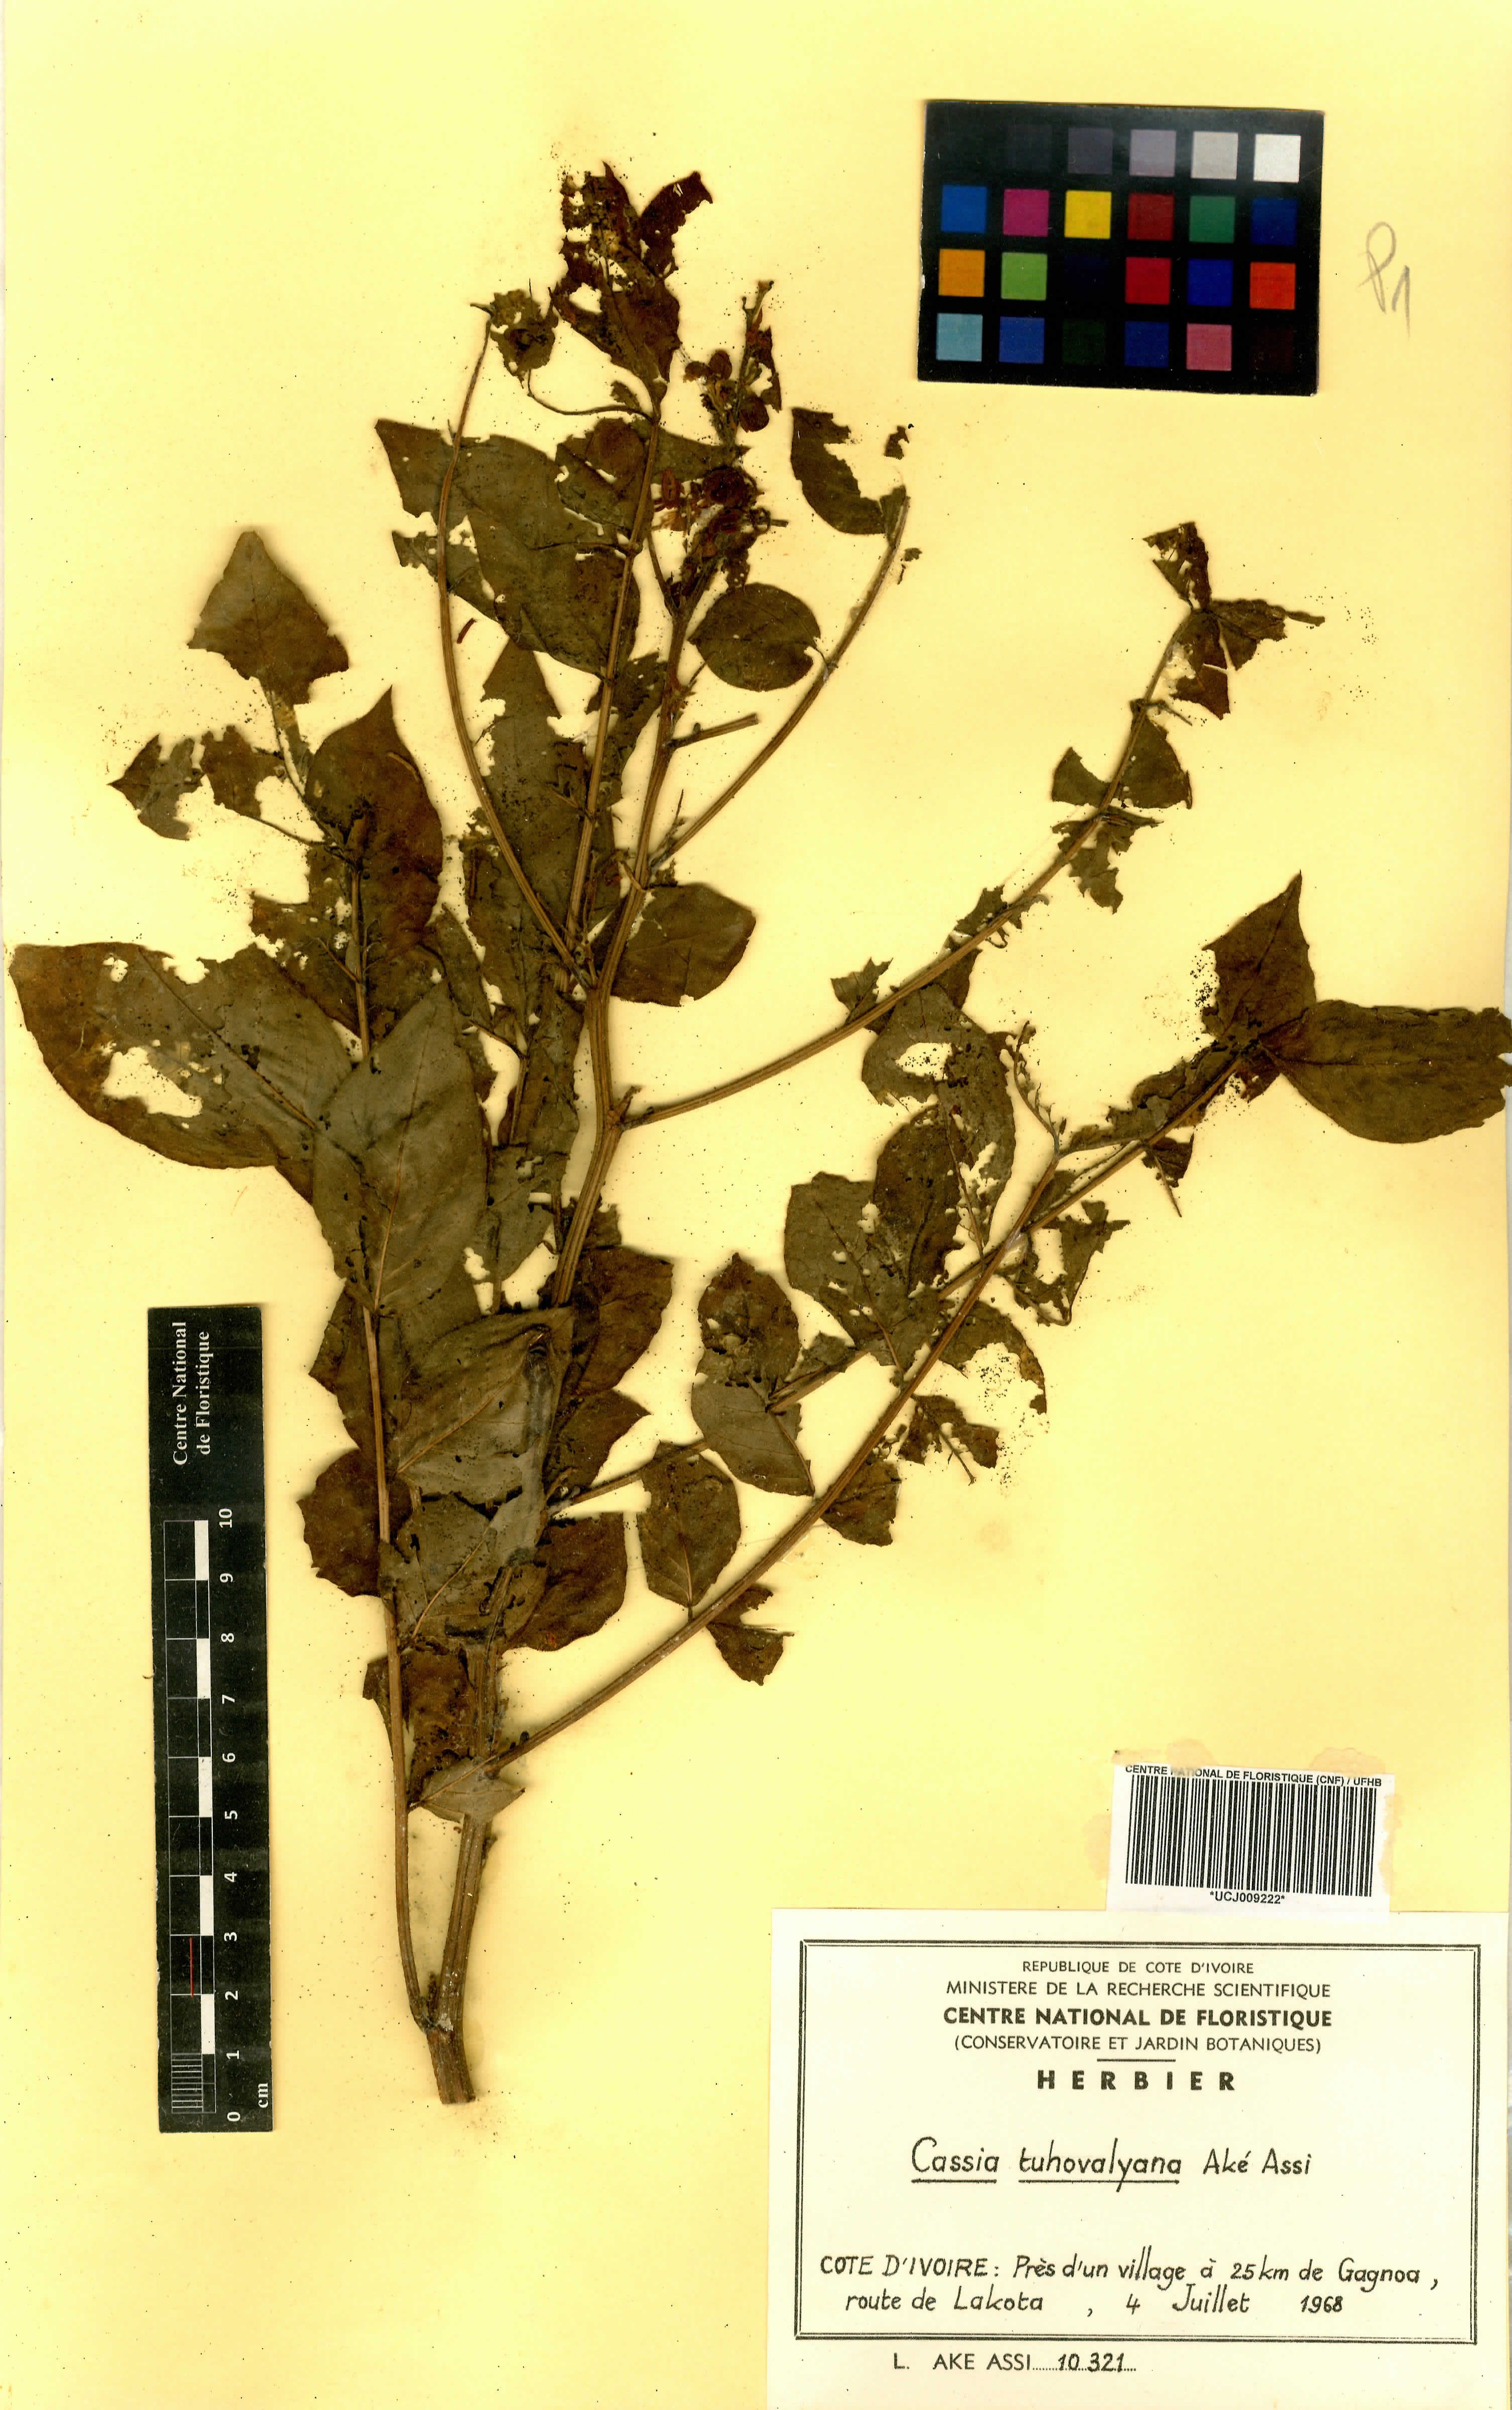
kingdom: Plantae
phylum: Tracheophyta
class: Magnoliopsida
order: Fabales
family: Fabaceae
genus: Senna
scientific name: Senna tuhovalyana
